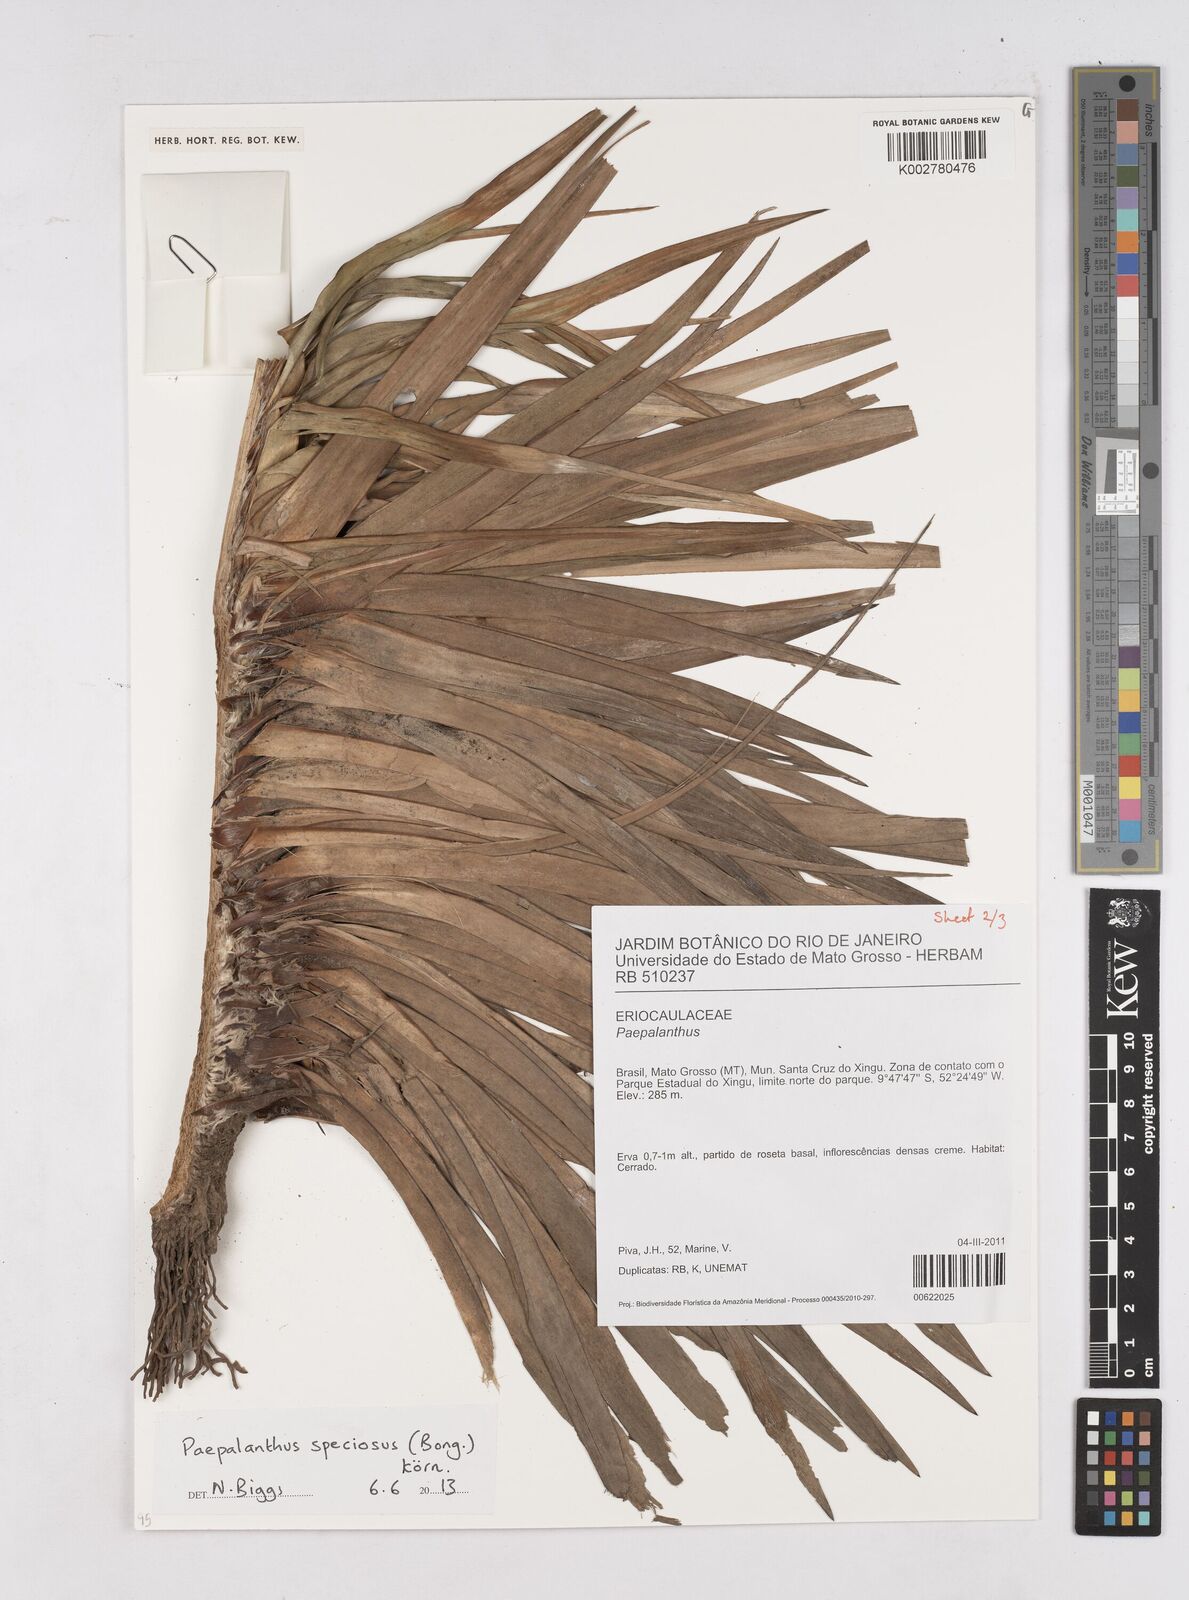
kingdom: Plantae
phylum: Tracheophyta
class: Liliopsida
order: Poales
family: Eriocaulaceae
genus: Paepalanthus
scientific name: Paepalanthus chiquitensis
